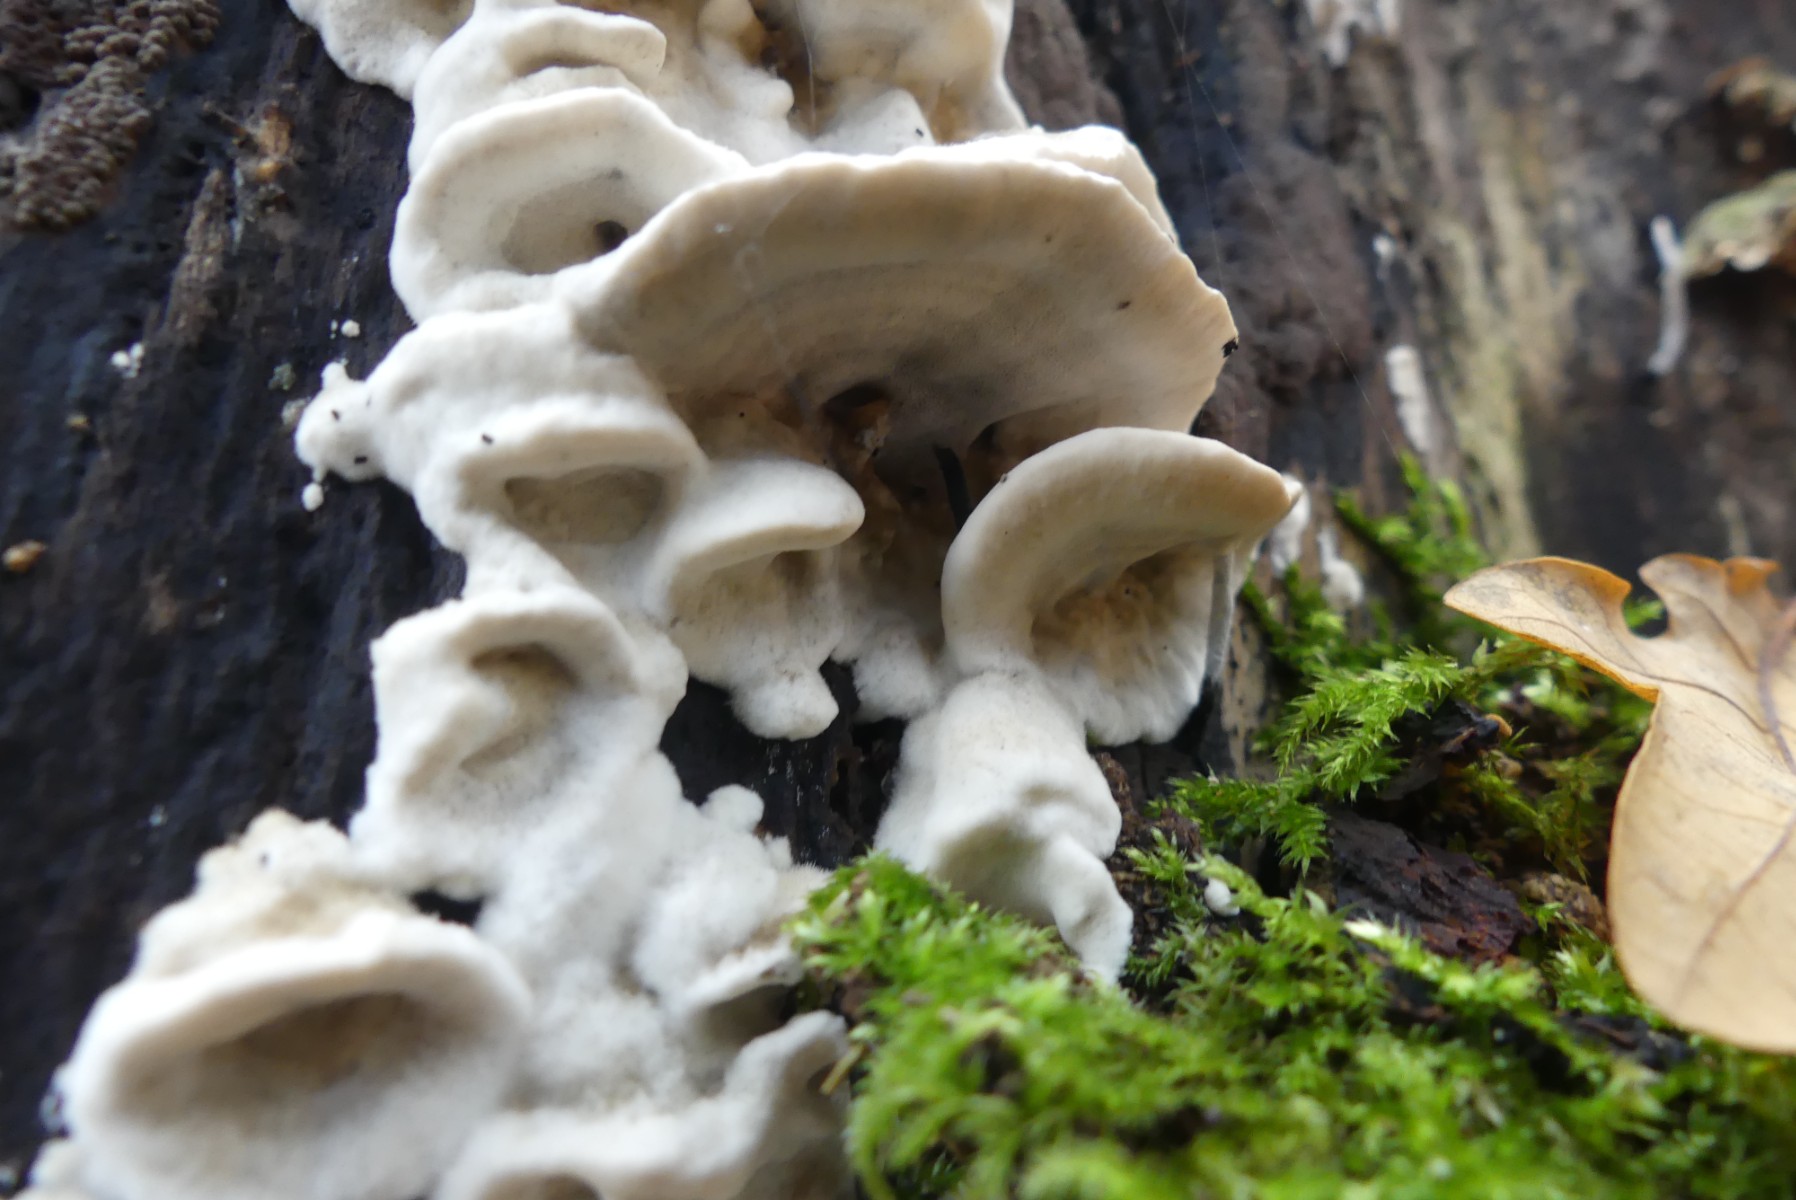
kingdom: Fungi
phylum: Basidiomycota
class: Agaricomycetes
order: Polyporales
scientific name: Polyporales
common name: poresvampordenen
